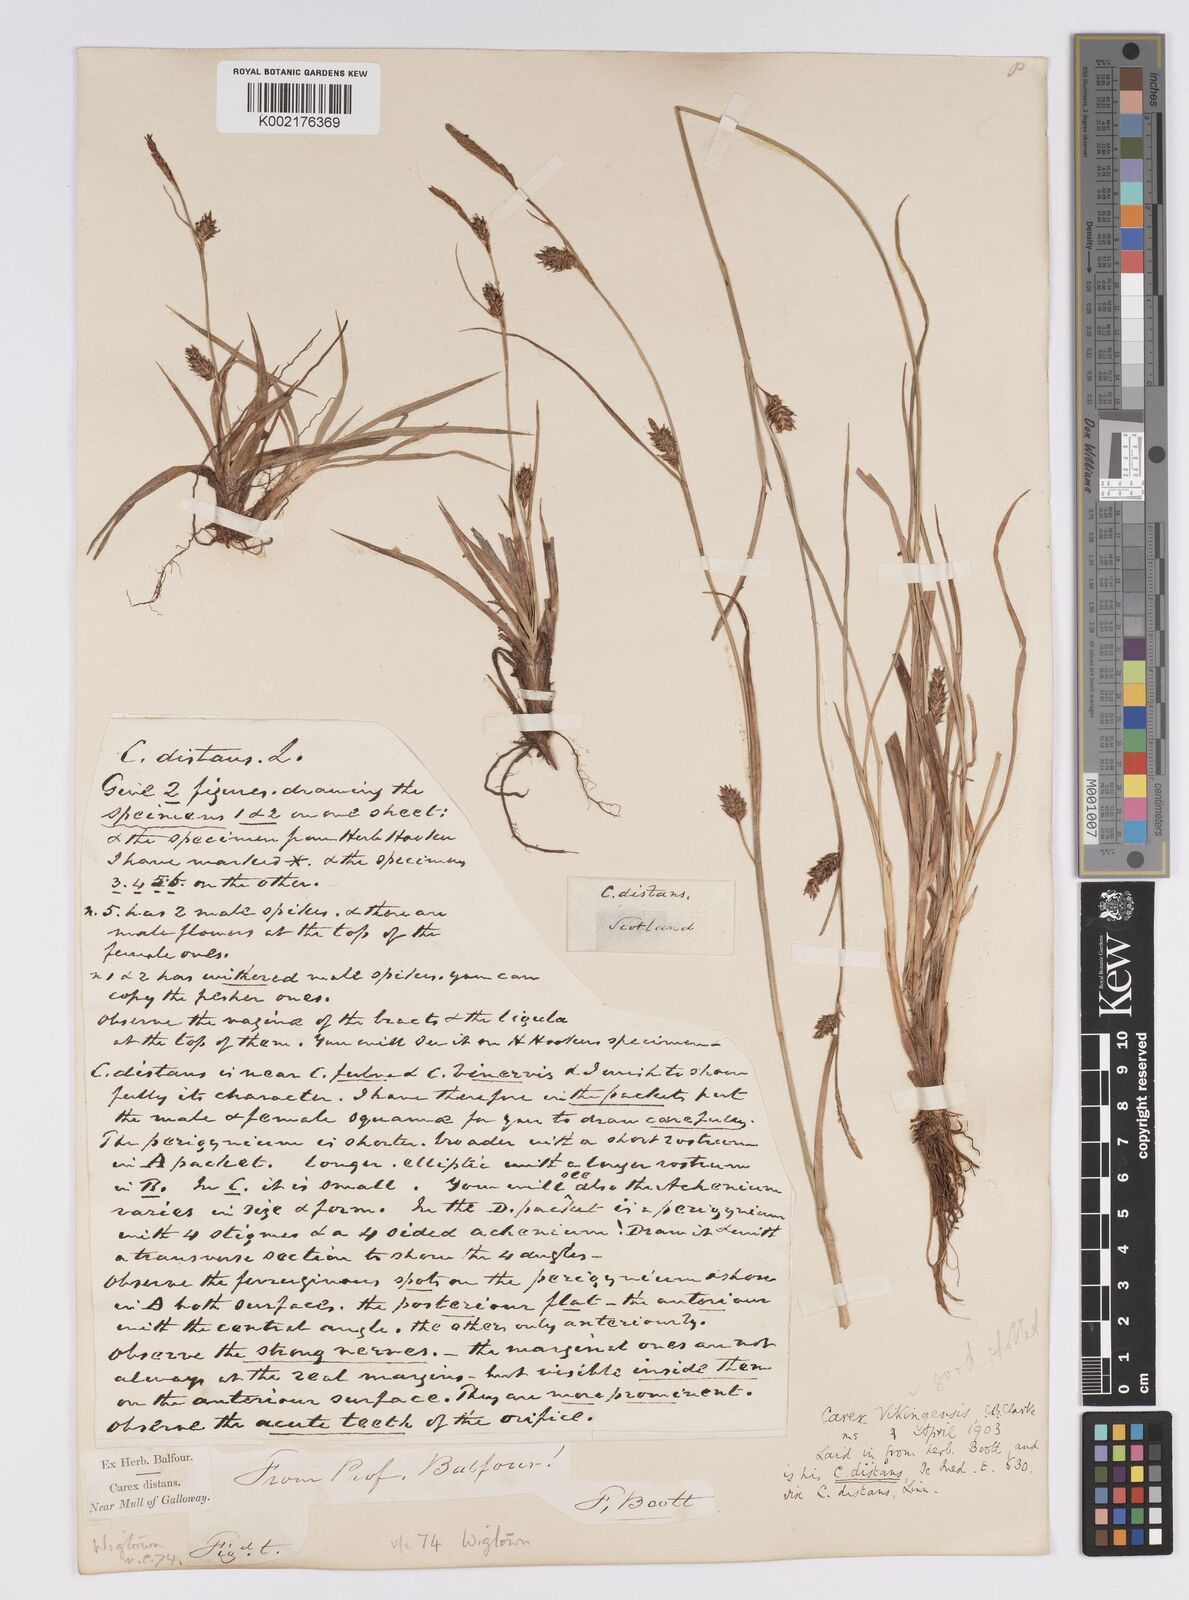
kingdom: Plantae
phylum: Tracheophyta
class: Liliopsida
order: Poales
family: Cyperaceae
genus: Carex
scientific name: Carex distans
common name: Distant sedge
